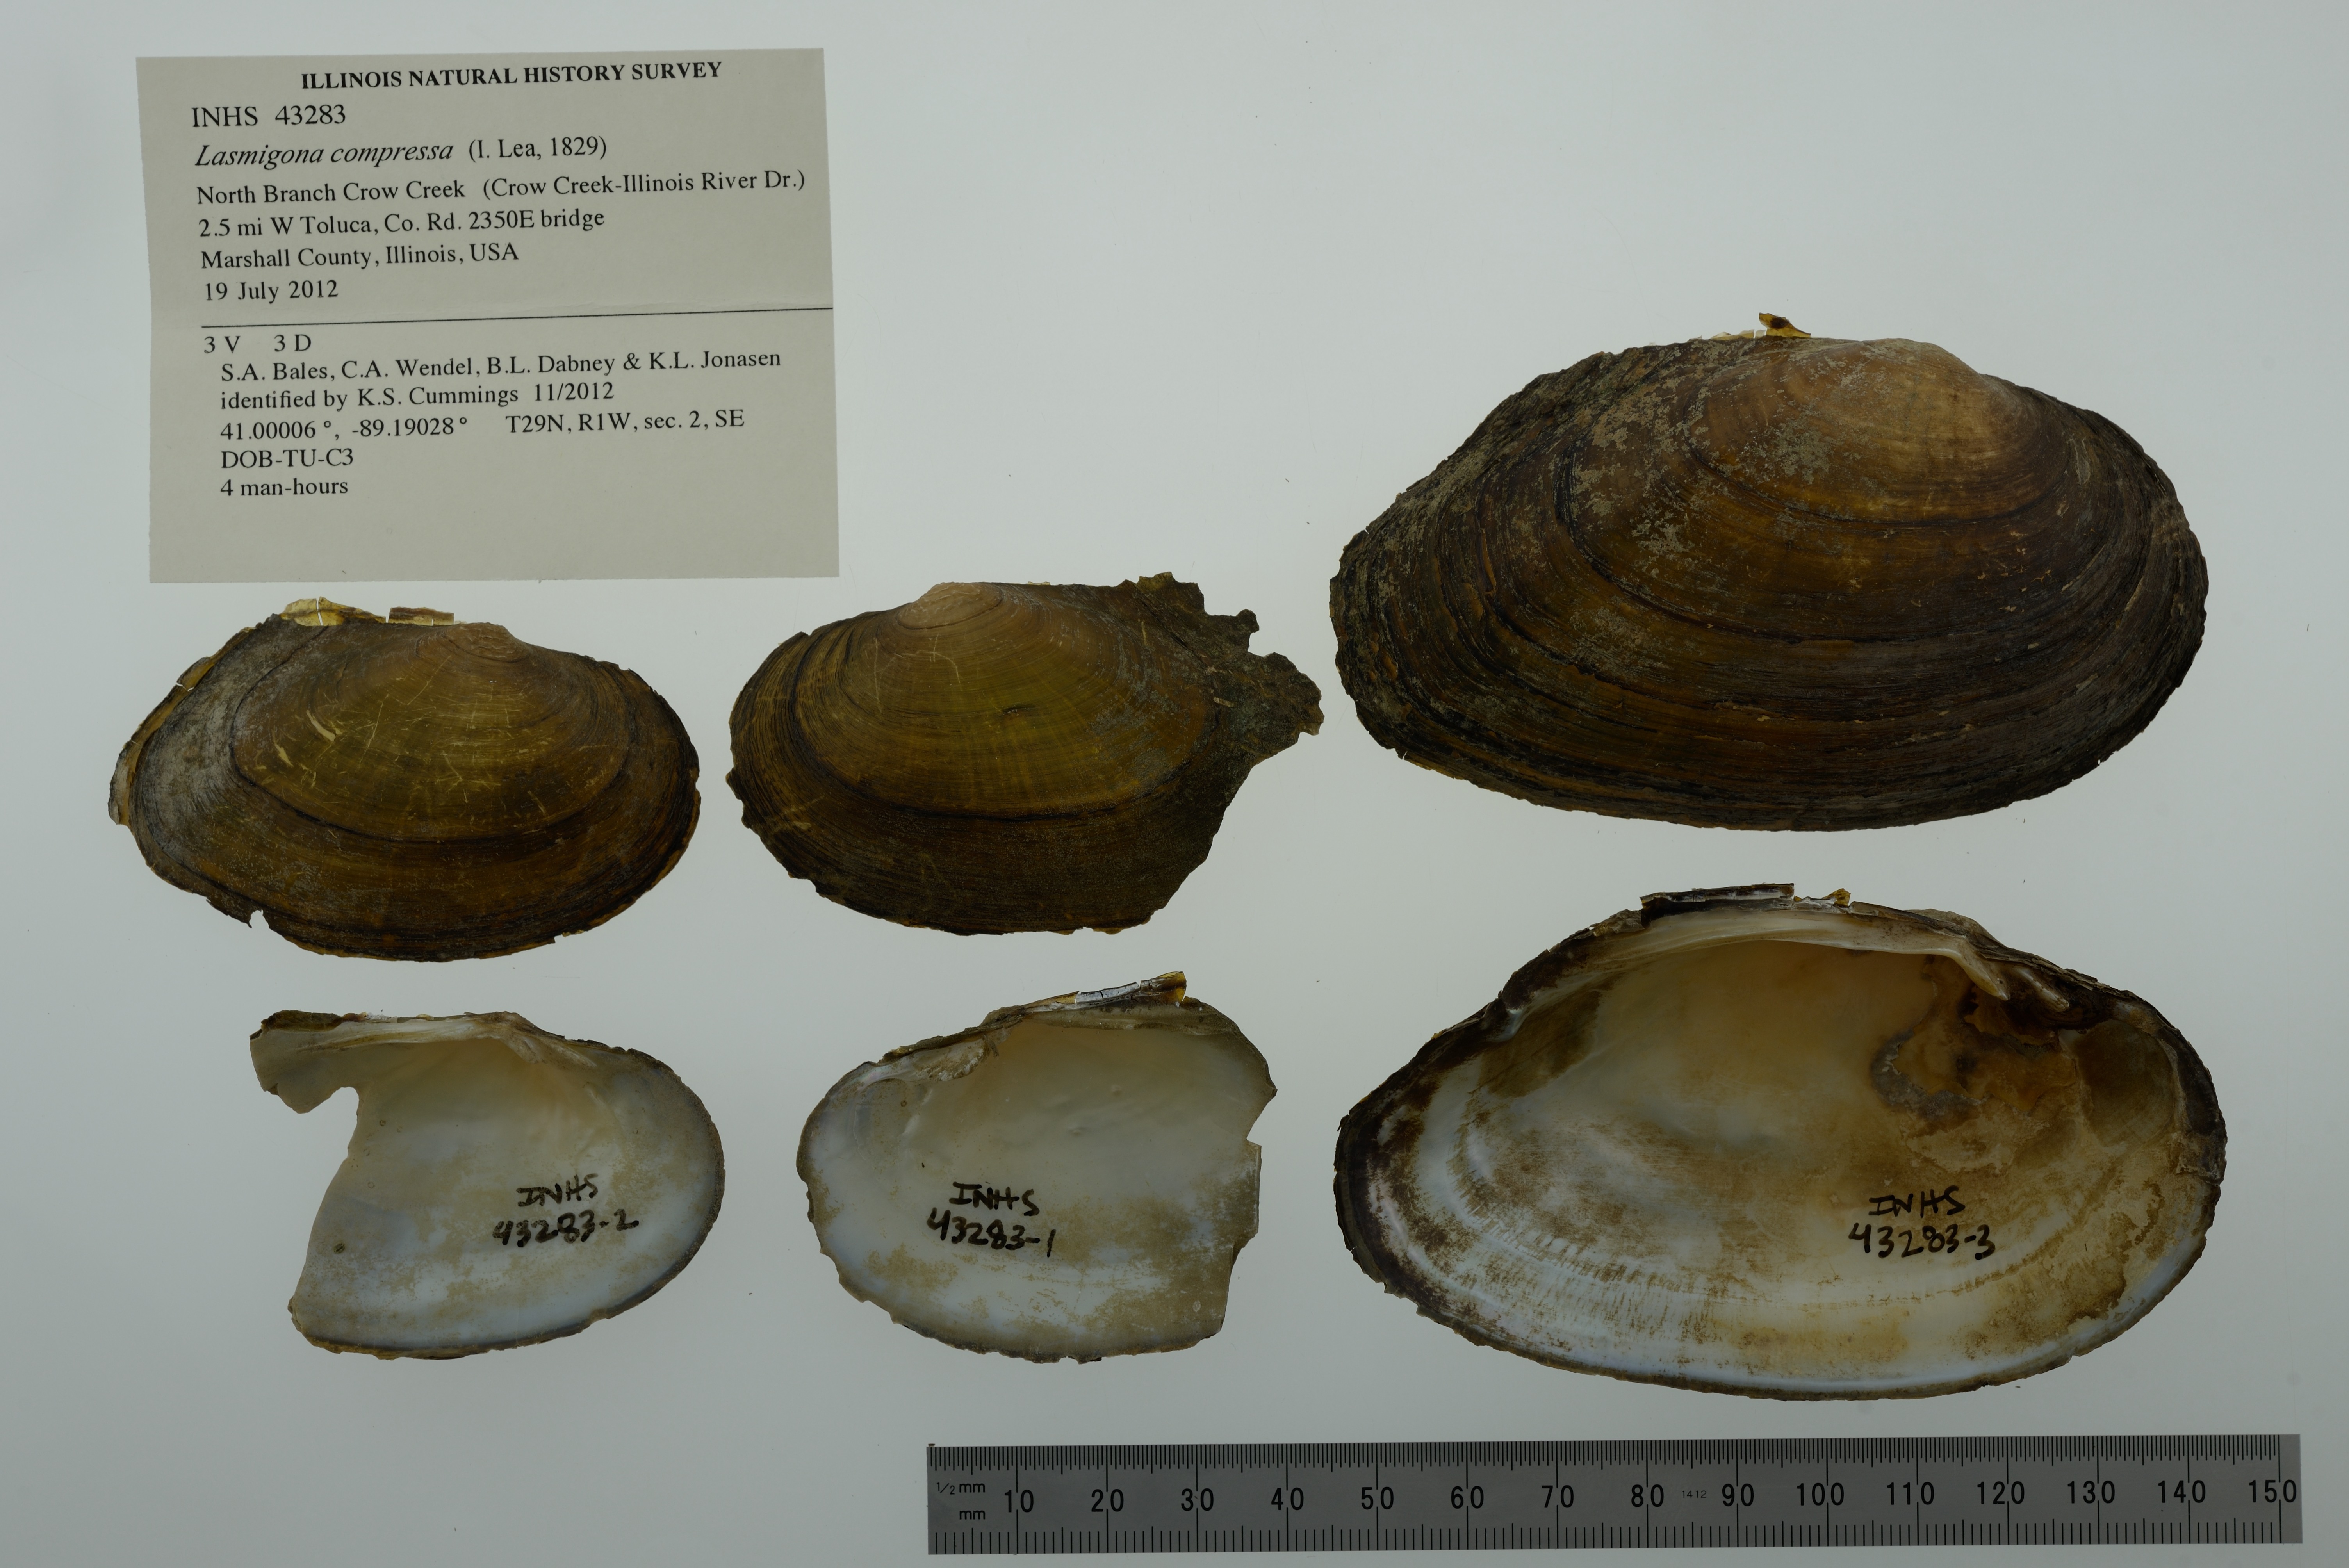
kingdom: Animalia
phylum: Mollusca
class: Bivalvia
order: Unionida
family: Unionidae
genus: Lasmigona
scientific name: Lasmigona compressa
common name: Creek heelsplitter
